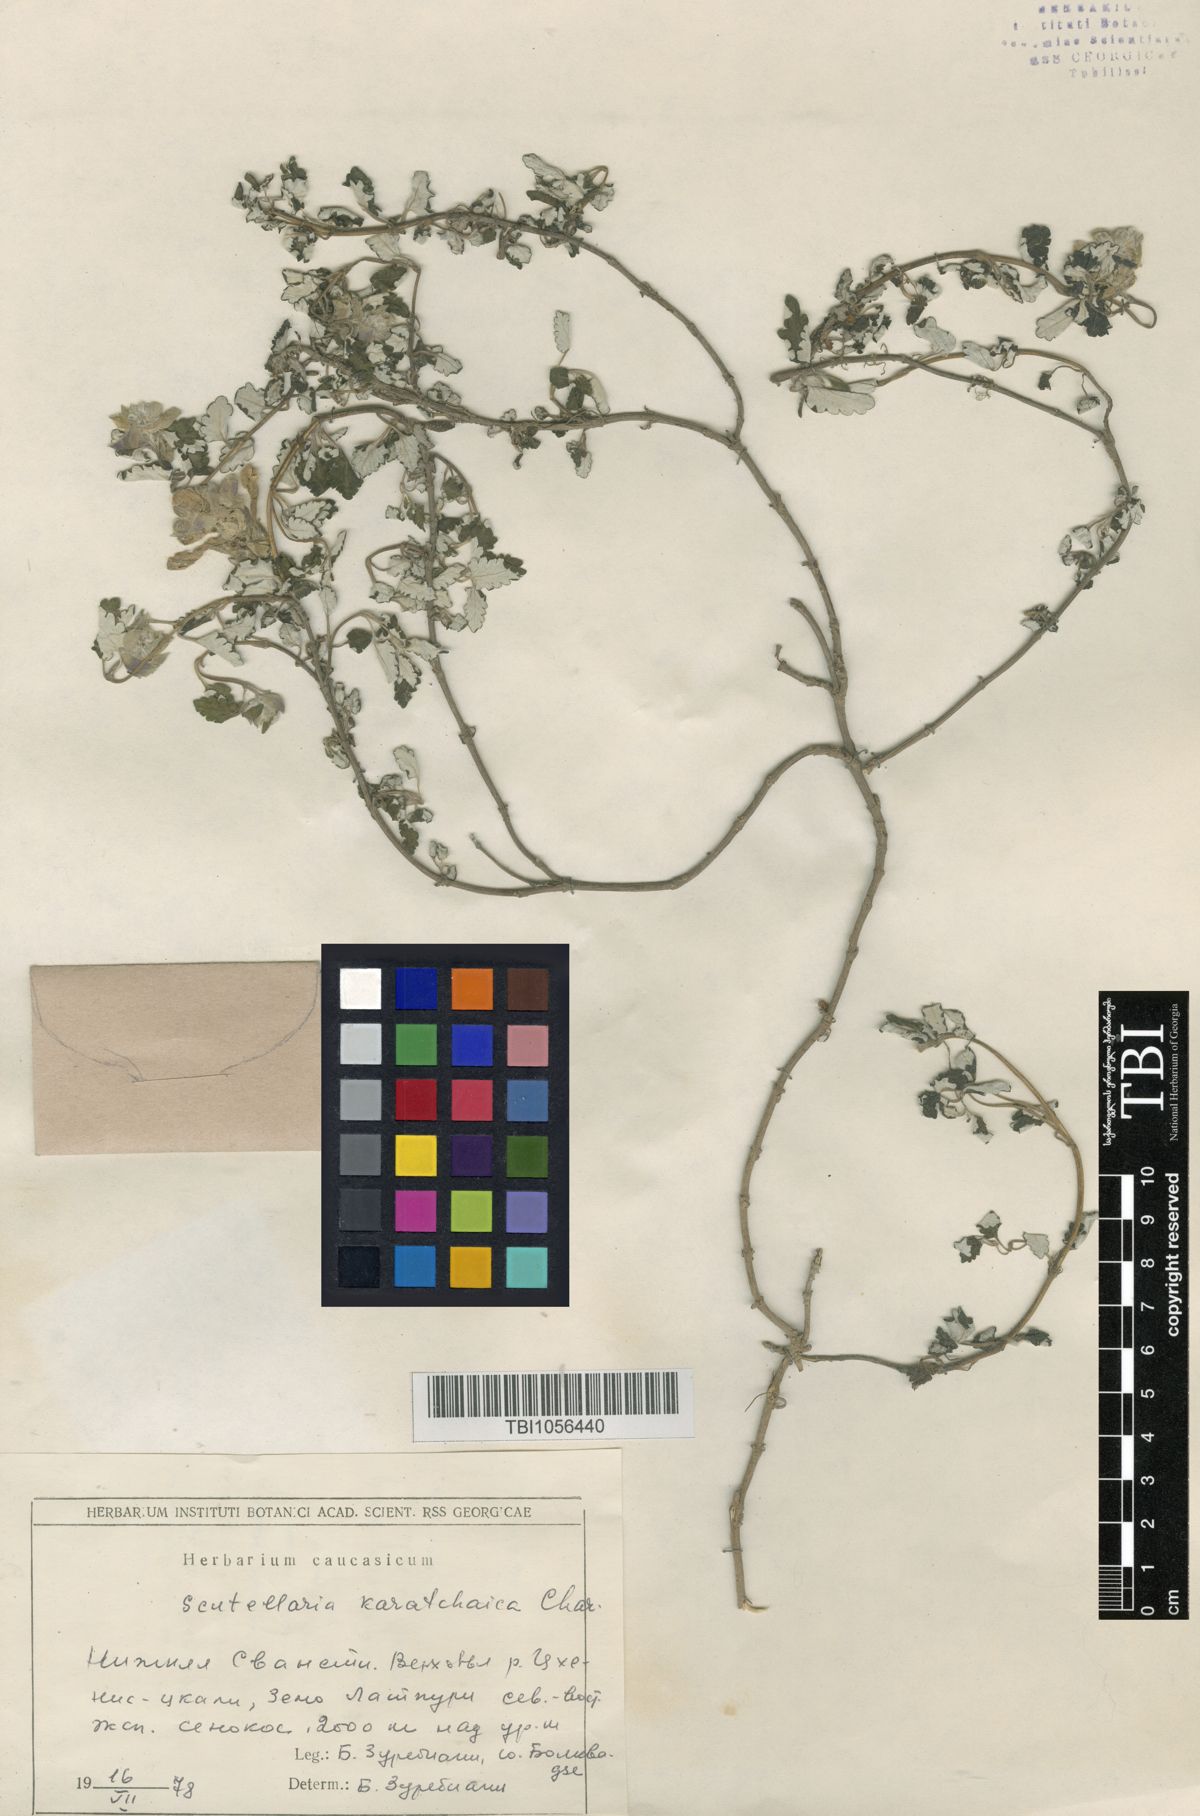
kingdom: Plantae
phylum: Tracheophyta
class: Magnoliopsida
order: Lamiales
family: Lamiaceae
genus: Scutellaria
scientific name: Scutellaria orientalis
